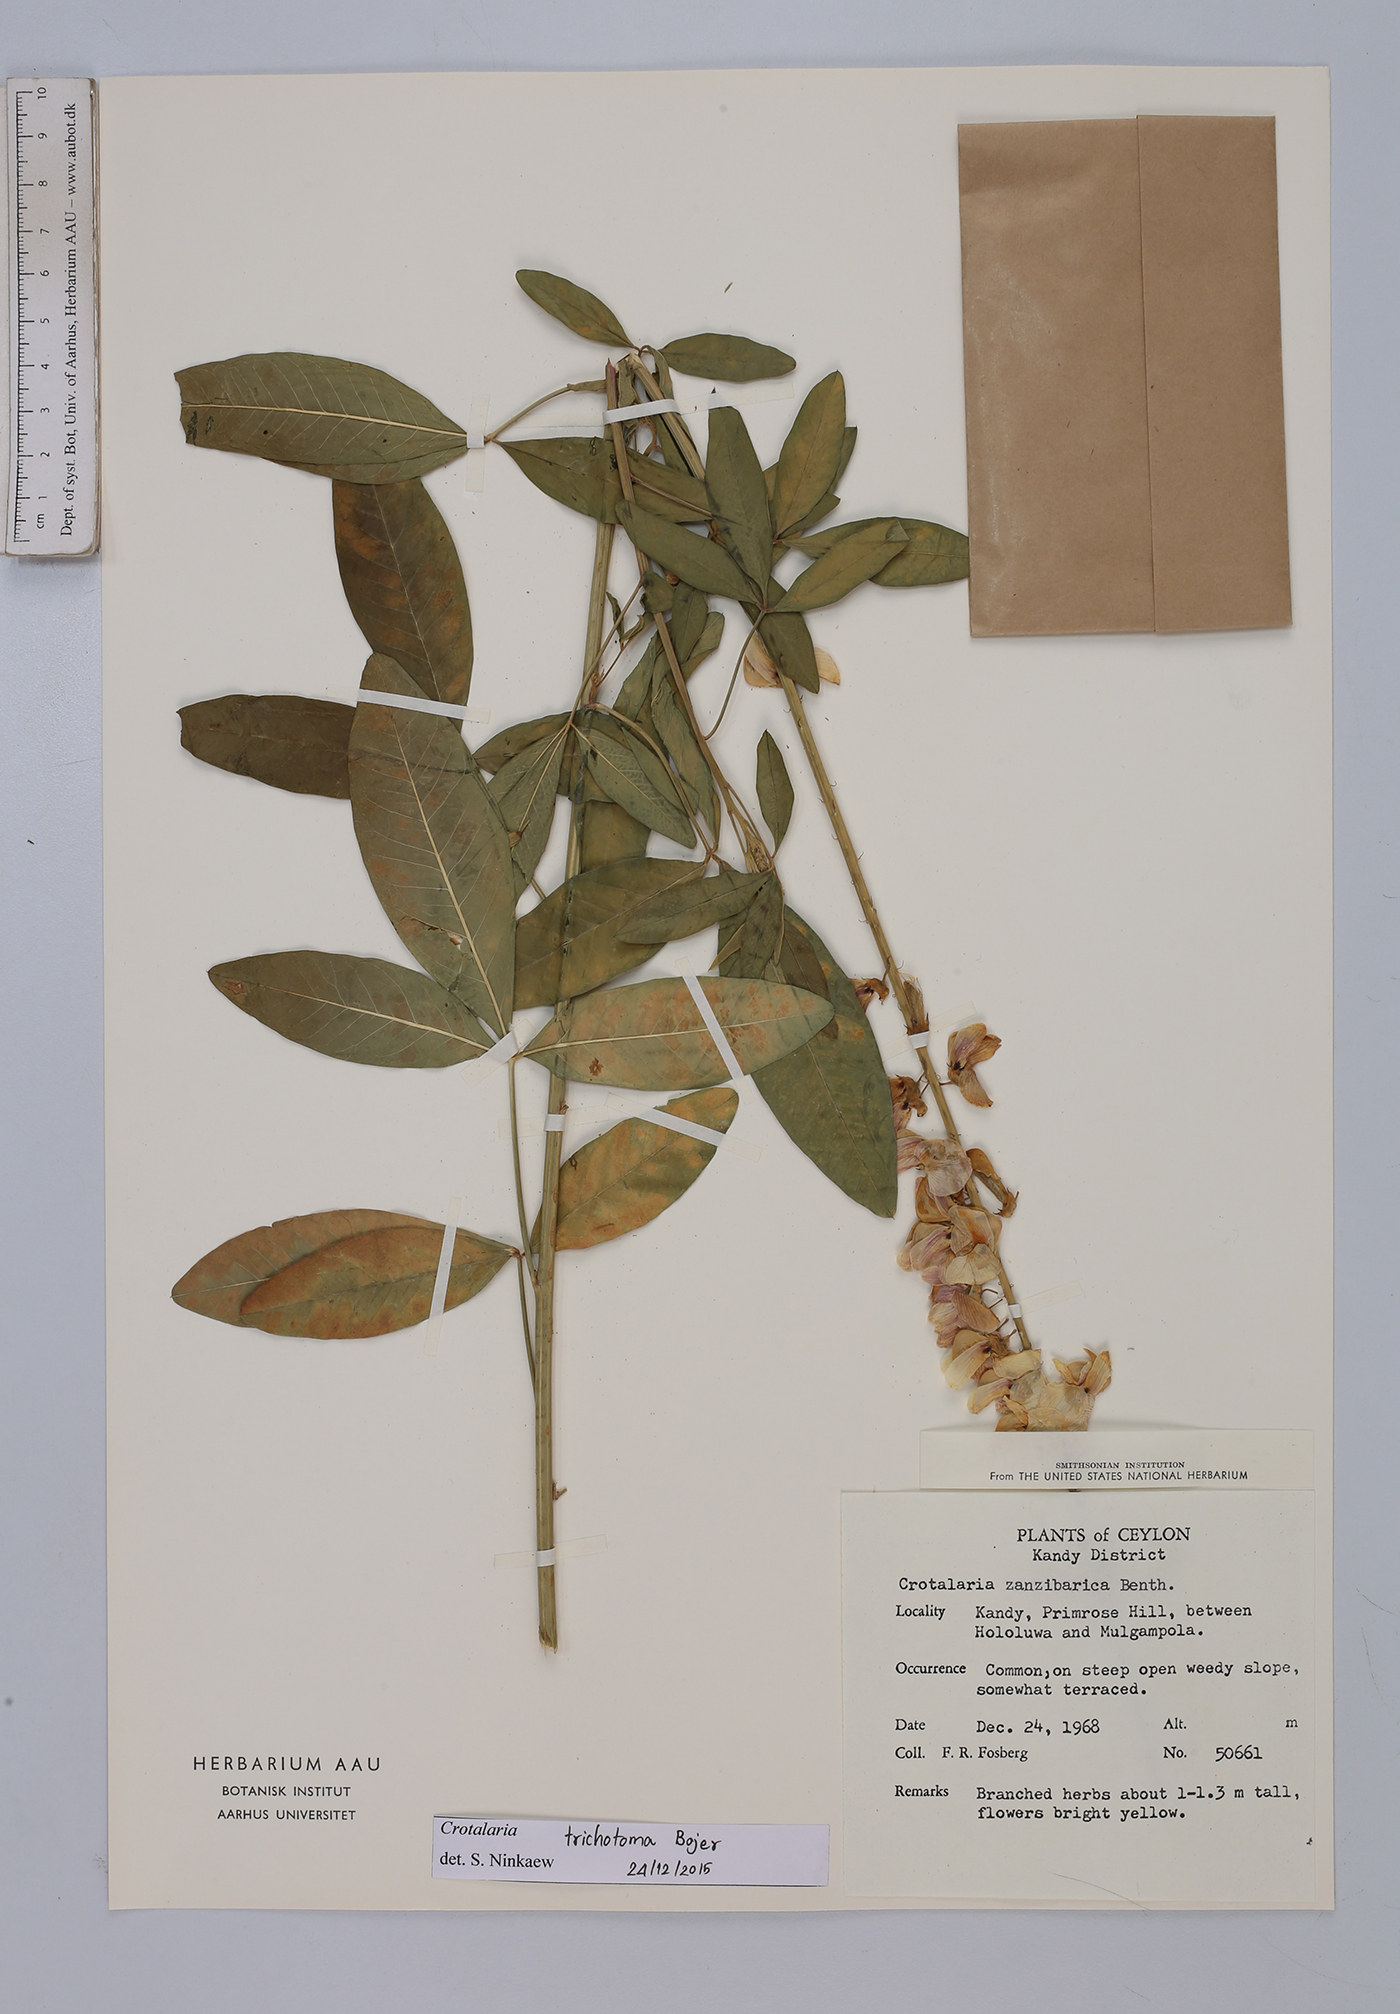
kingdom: Plantae
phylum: Tracheophyta
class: Magnoliopsida
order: Fabales
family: Fabaceae
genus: Crotalaria
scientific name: Crotalaria trichotoma
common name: West indian rattlebox
